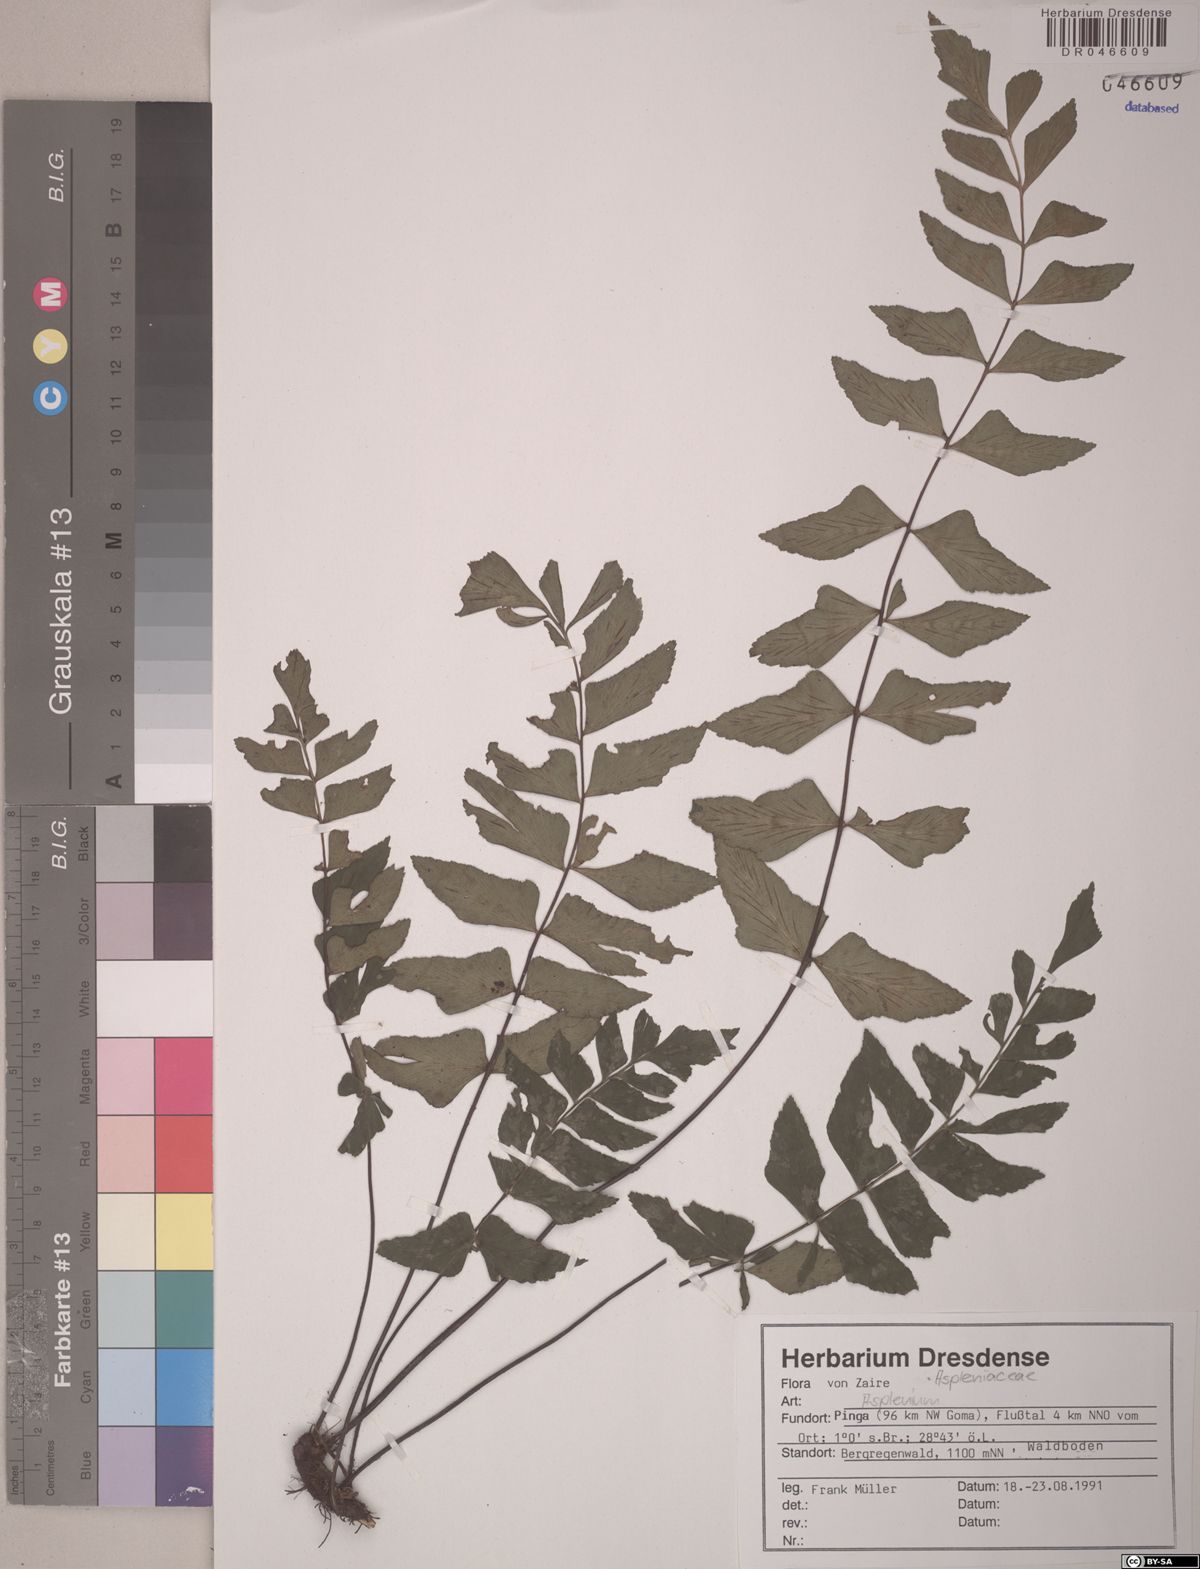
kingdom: Plantae
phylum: Tracheophyta
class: Polypodiopsida
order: Polypodiales
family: Aspleniaceae
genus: Asplenium
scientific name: Asplenium
